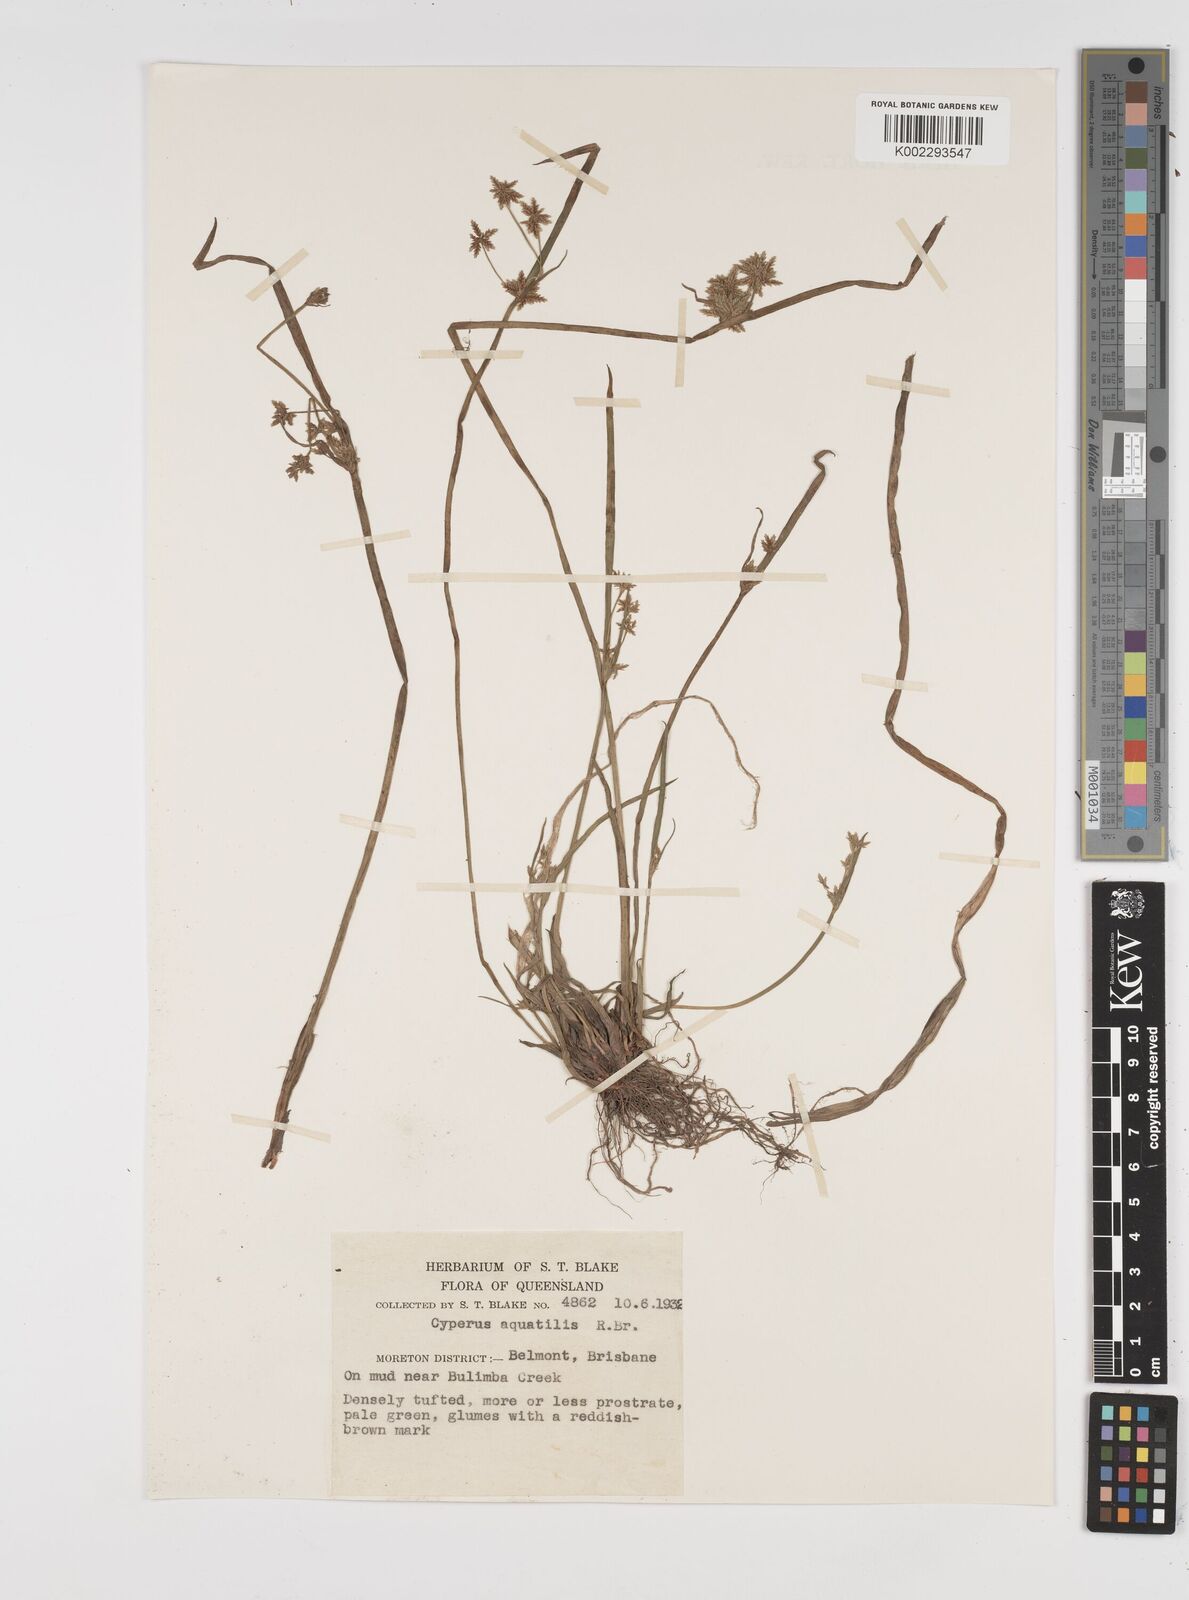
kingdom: Plantae
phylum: Tracheophyta
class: Liliopsida
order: Poales
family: Cyperaceae
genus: Cyperus
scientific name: Cyperus aquatilis
